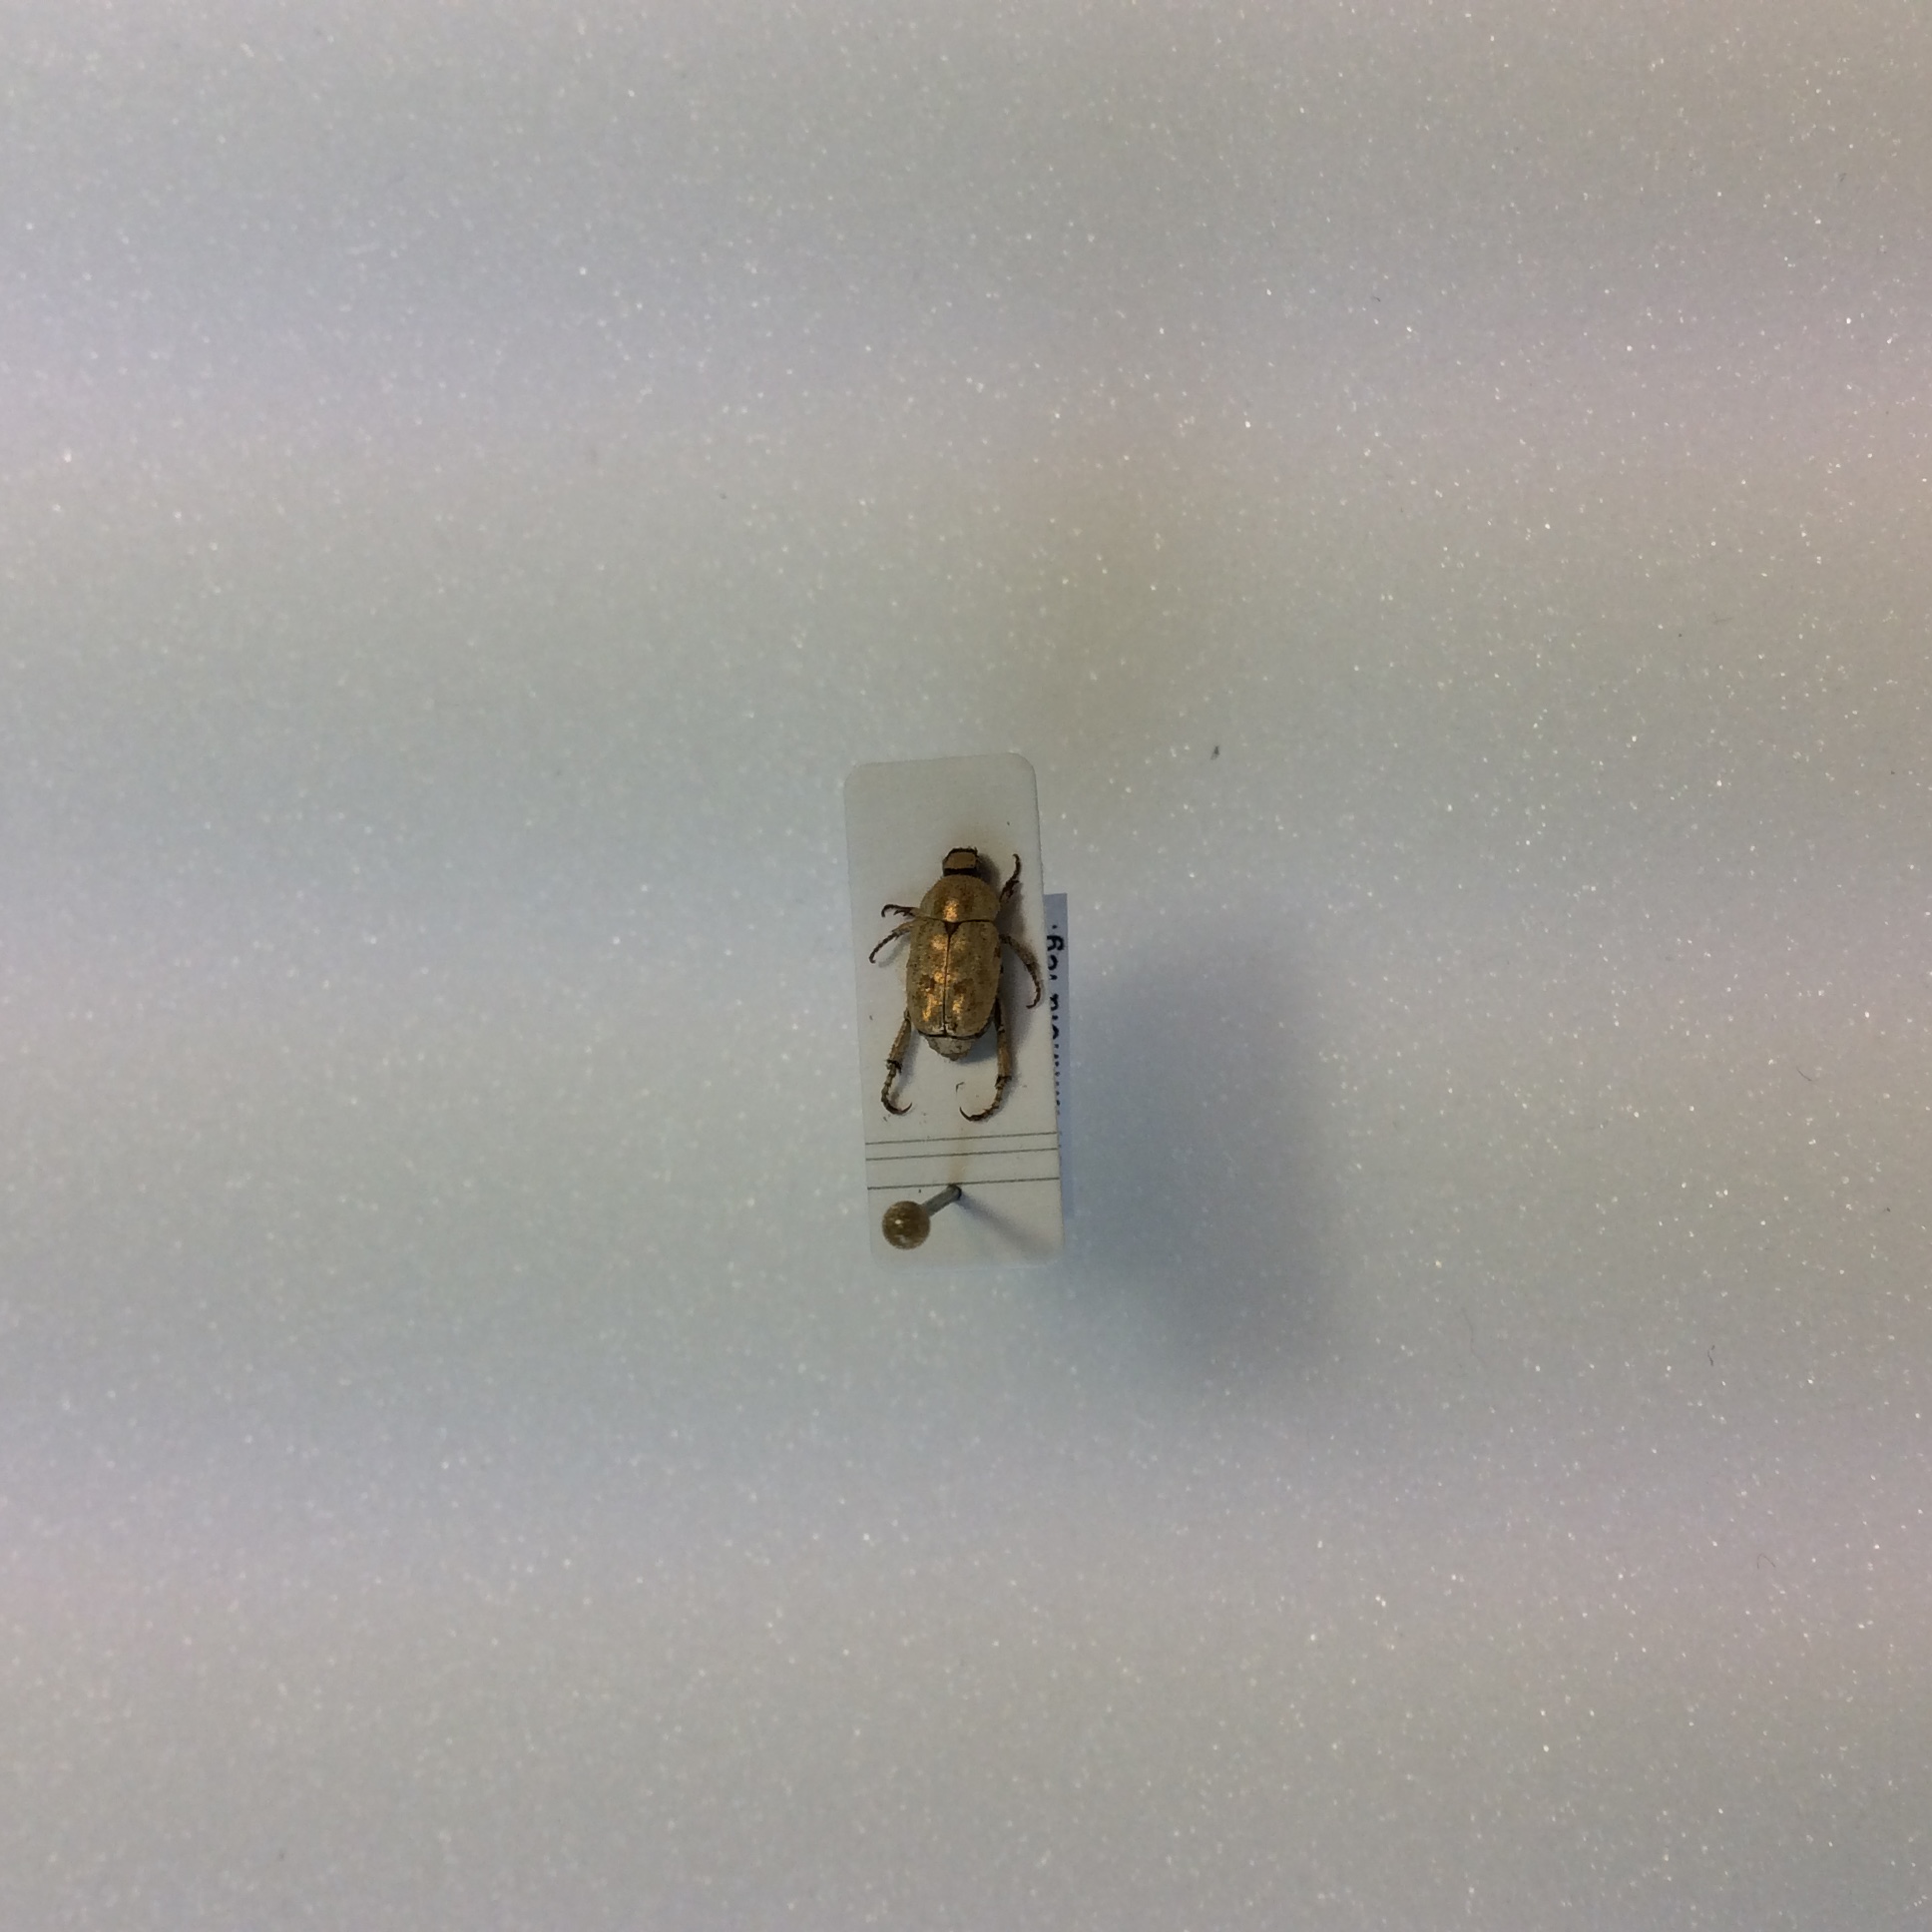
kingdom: Animalia
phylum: Arthropoda
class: Insecta
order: Coleoptera
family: Rutelidae
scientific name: Rutelidae
